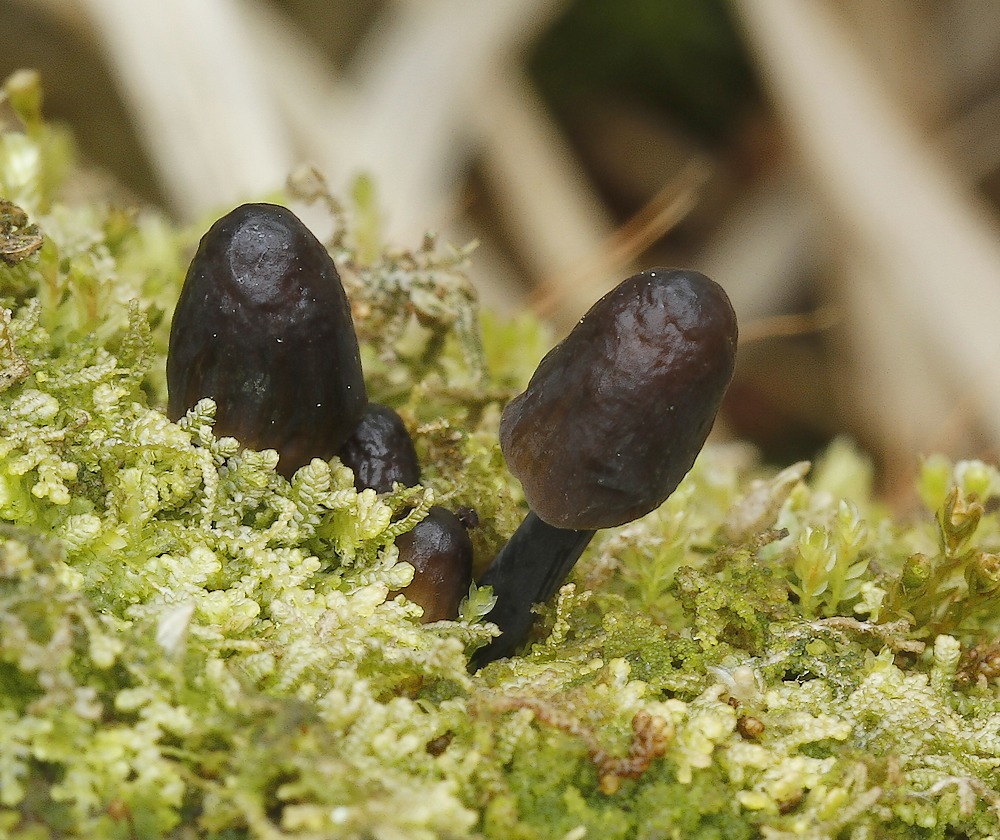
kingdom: Fungi
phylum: Basidiomycota
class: Agaricomycetes
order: Agaricales
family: Mycenaceae
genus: Mycena
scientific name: Mycena
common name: huesvamp
